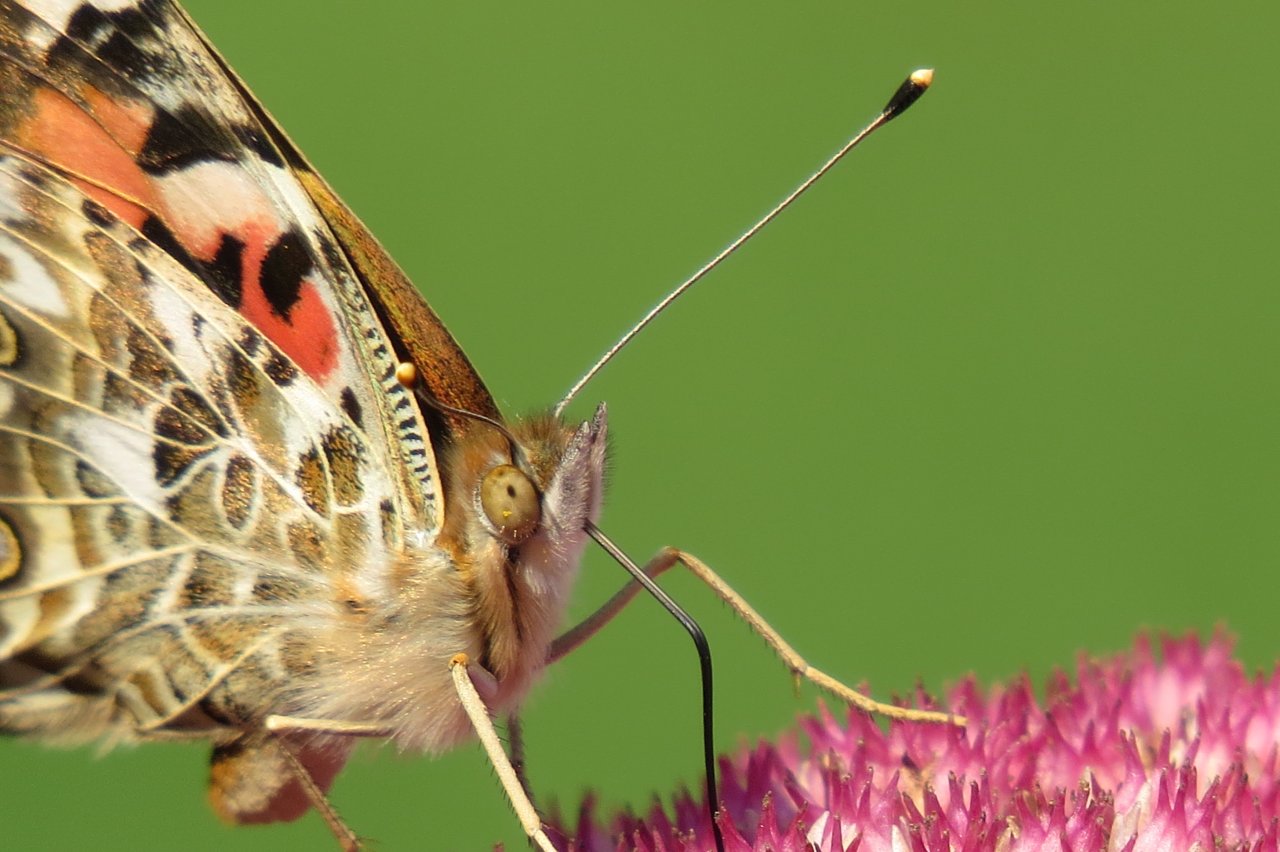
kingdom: Animalia
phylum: Arthropoda
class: Insecta
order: Lepidoptera
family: Nymphalidae
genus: Vanessa
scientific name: Vanessa cardui
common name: Painted Lady
